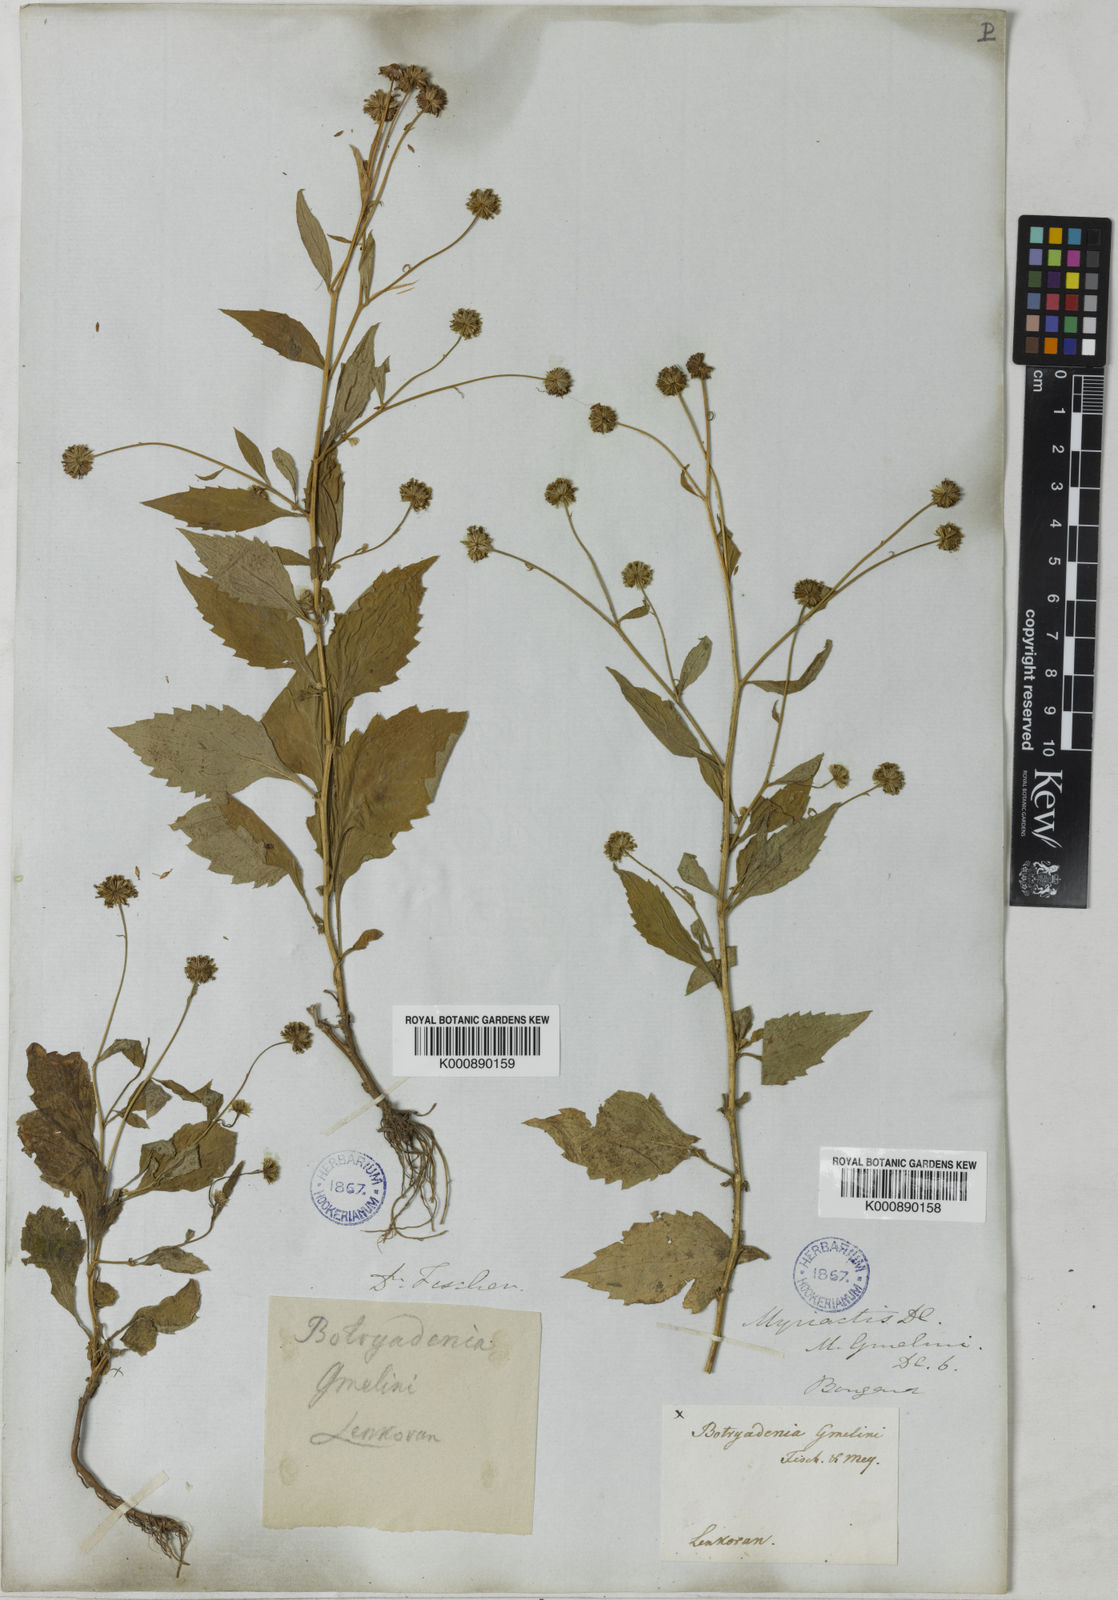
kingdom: Plantae
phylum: Tracheophyta
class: Magnoliopsida
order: Asterales
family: Asteraceae
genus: Myriactis
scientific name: Myriactis wallichii
